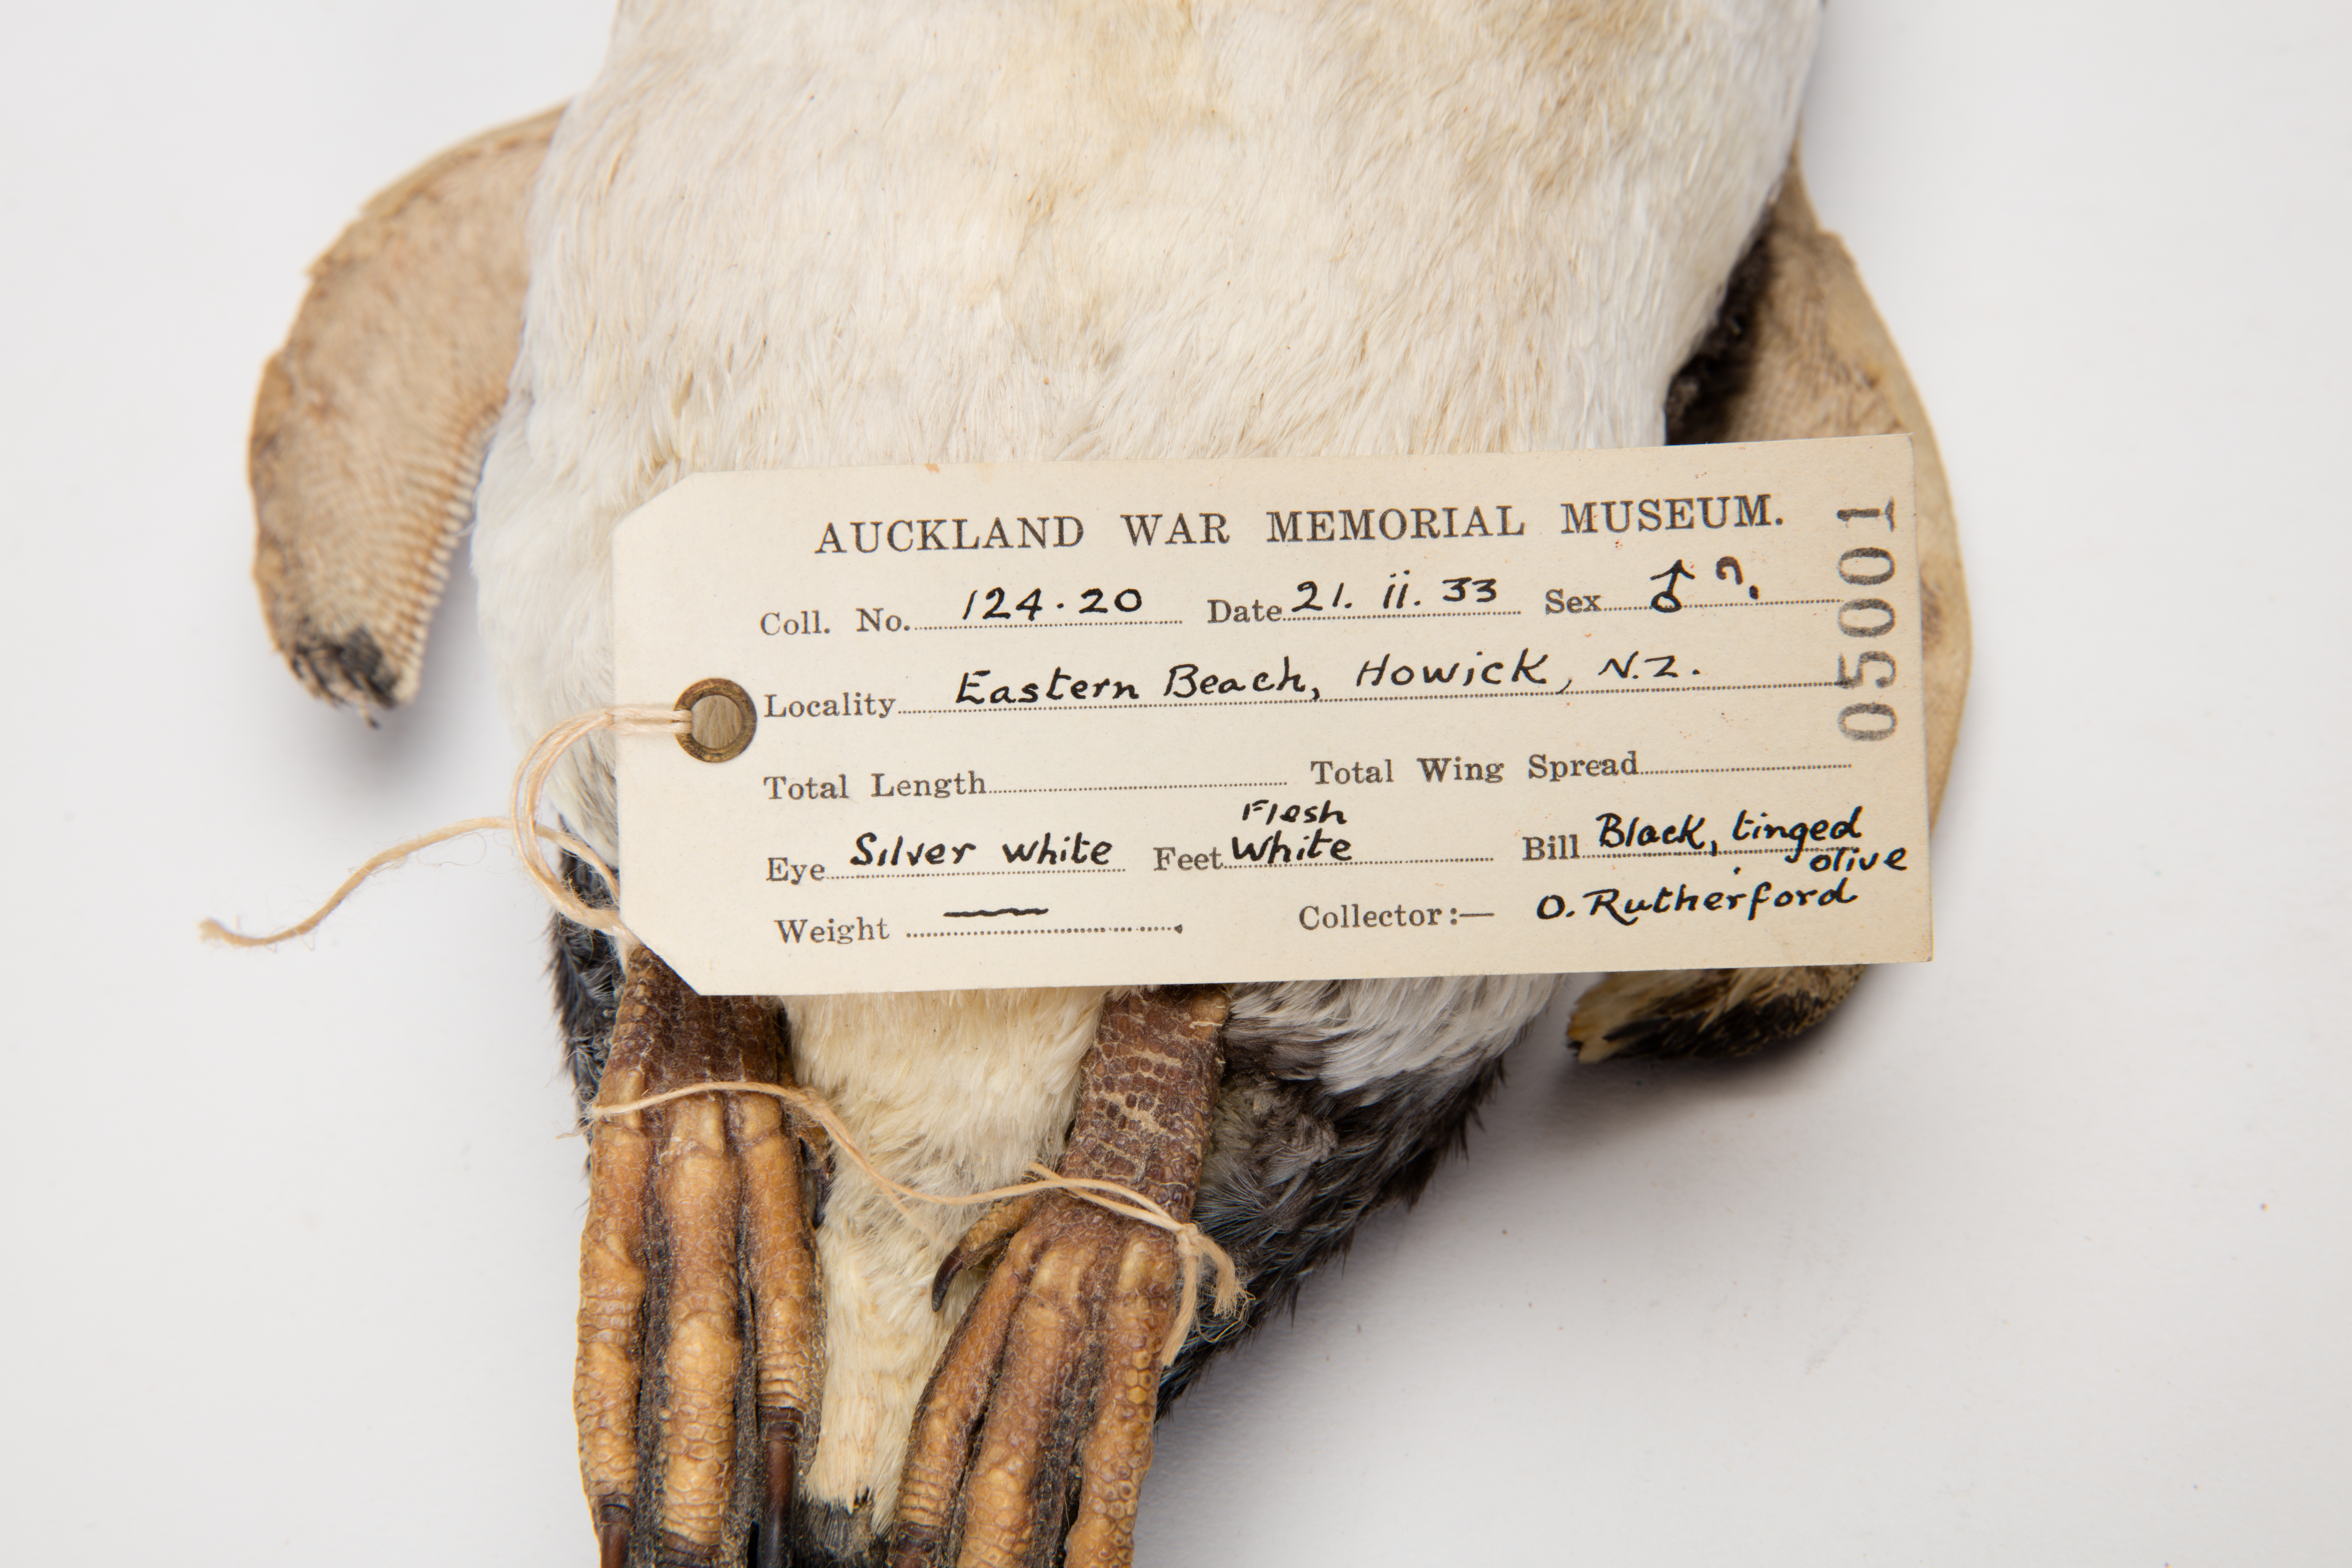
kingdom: Animalia
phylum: Chordata
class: Aves
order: Sphenisciformes
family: Spheniscidae
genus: Eudyptula
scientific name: Eudyptula minor
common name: Little penguin
